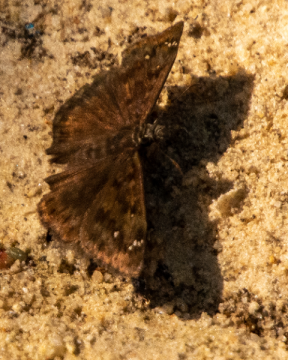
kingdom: Animalia
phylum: Arthropoda
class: Insecta
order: Lepidoptera
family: Hesperiidae
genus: Gesta
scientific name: Gesta
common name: Horace's Duskywing
